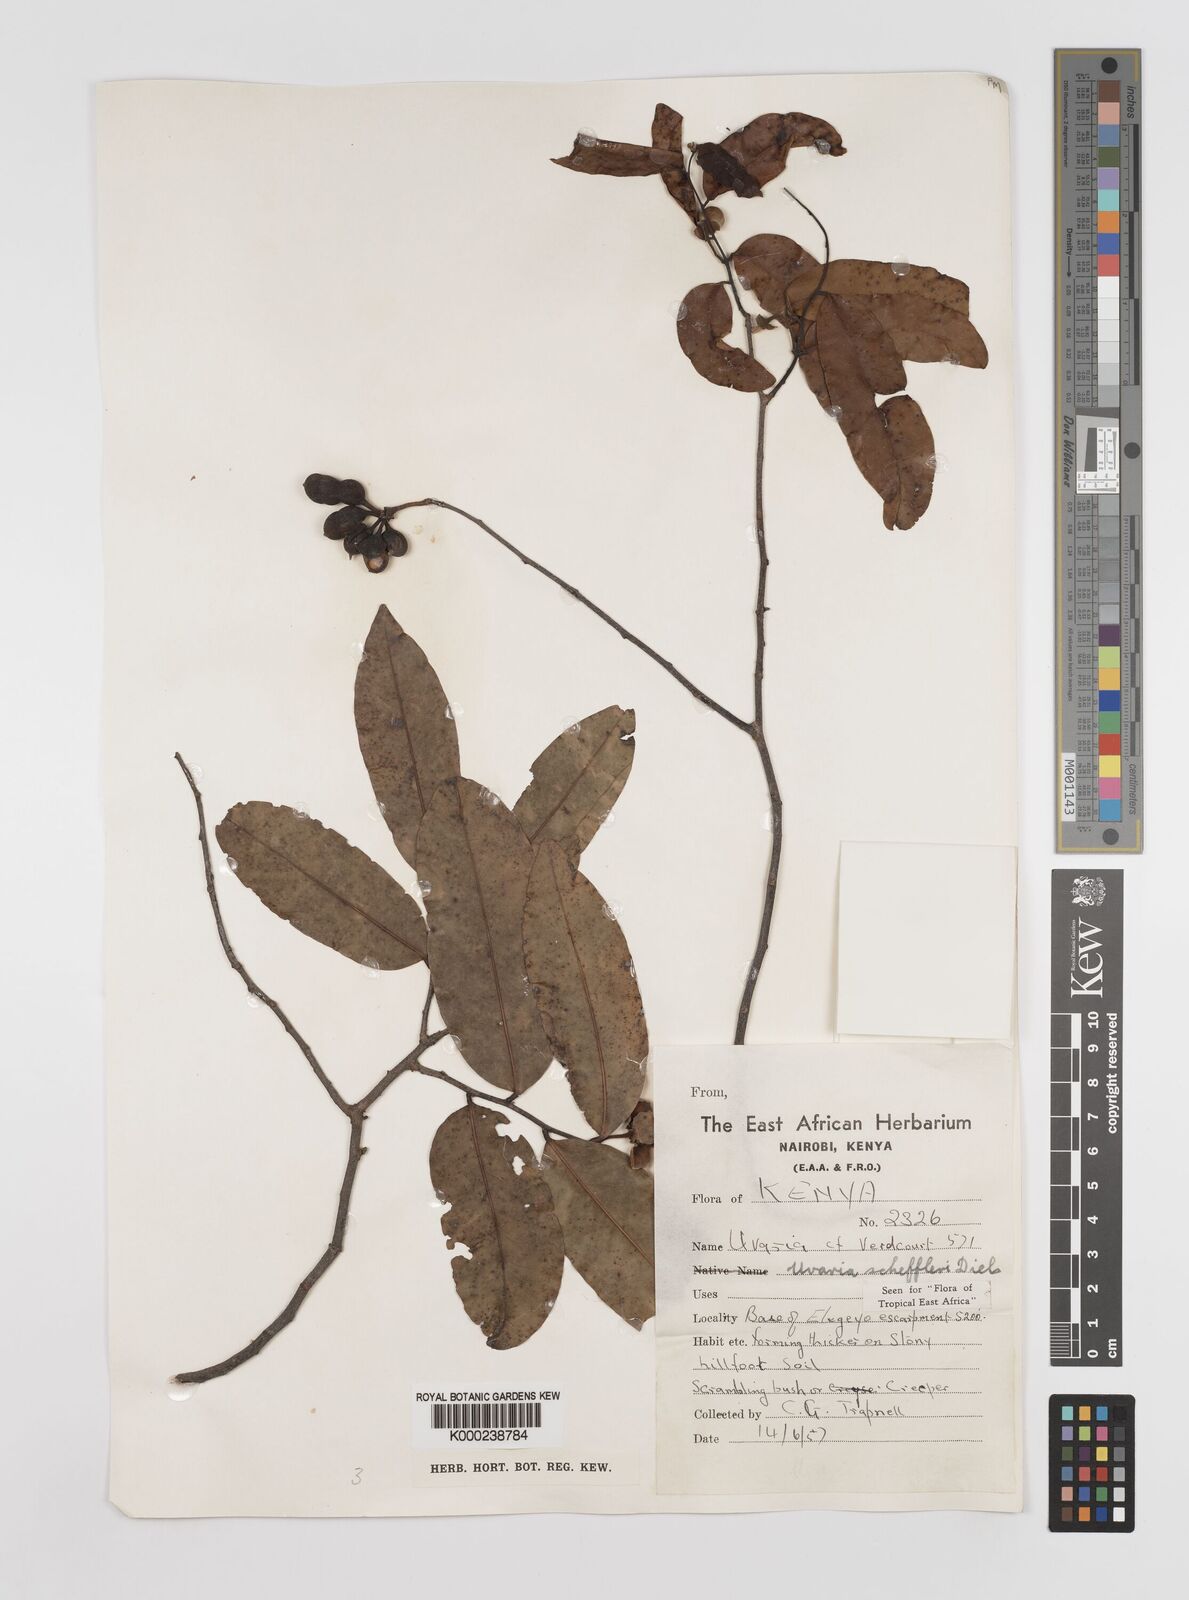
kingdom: Plantae
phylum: Tracheophyta
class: Magnoliopsida
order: Magnoliales
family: Annonaceae
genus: Uvaria
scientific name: Uvaria scheffleri
